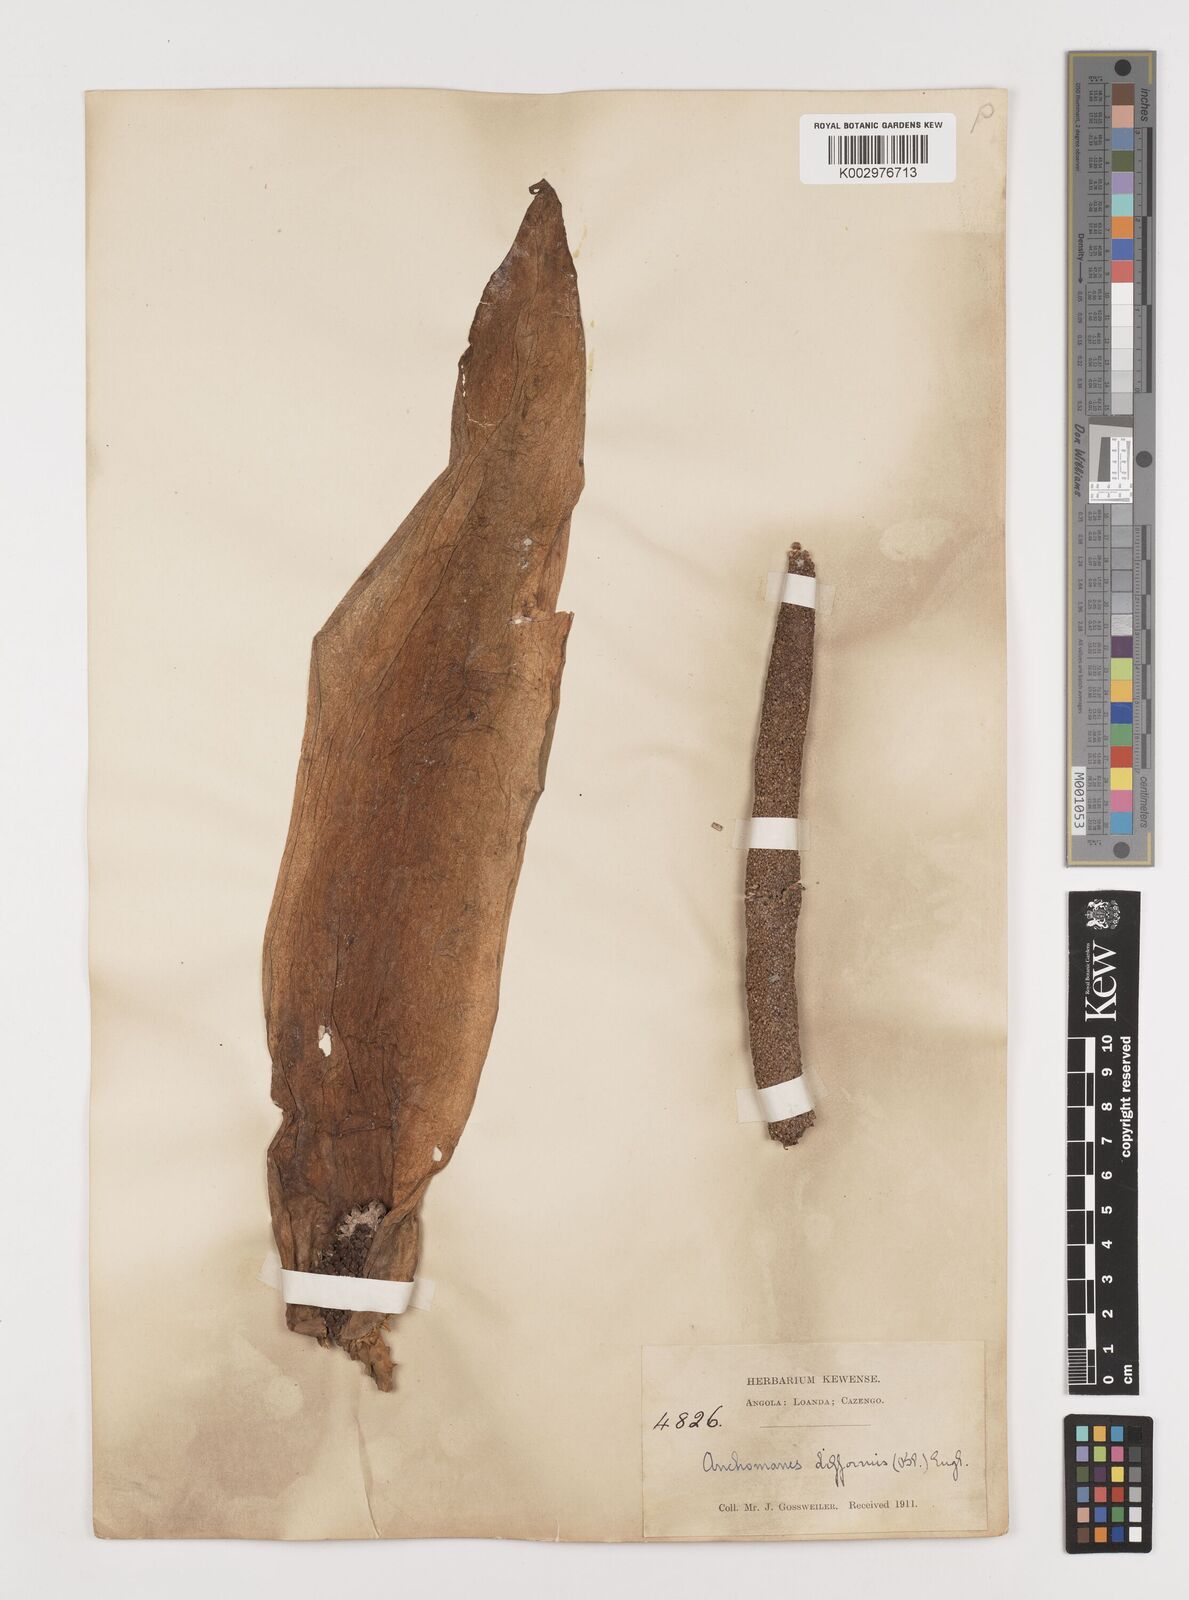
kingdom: Plantae
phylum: Tracheophyta
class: Liliopsida
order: Alismatales
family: Araceae
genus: Anchomanes
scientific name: Anchomanes difformis
